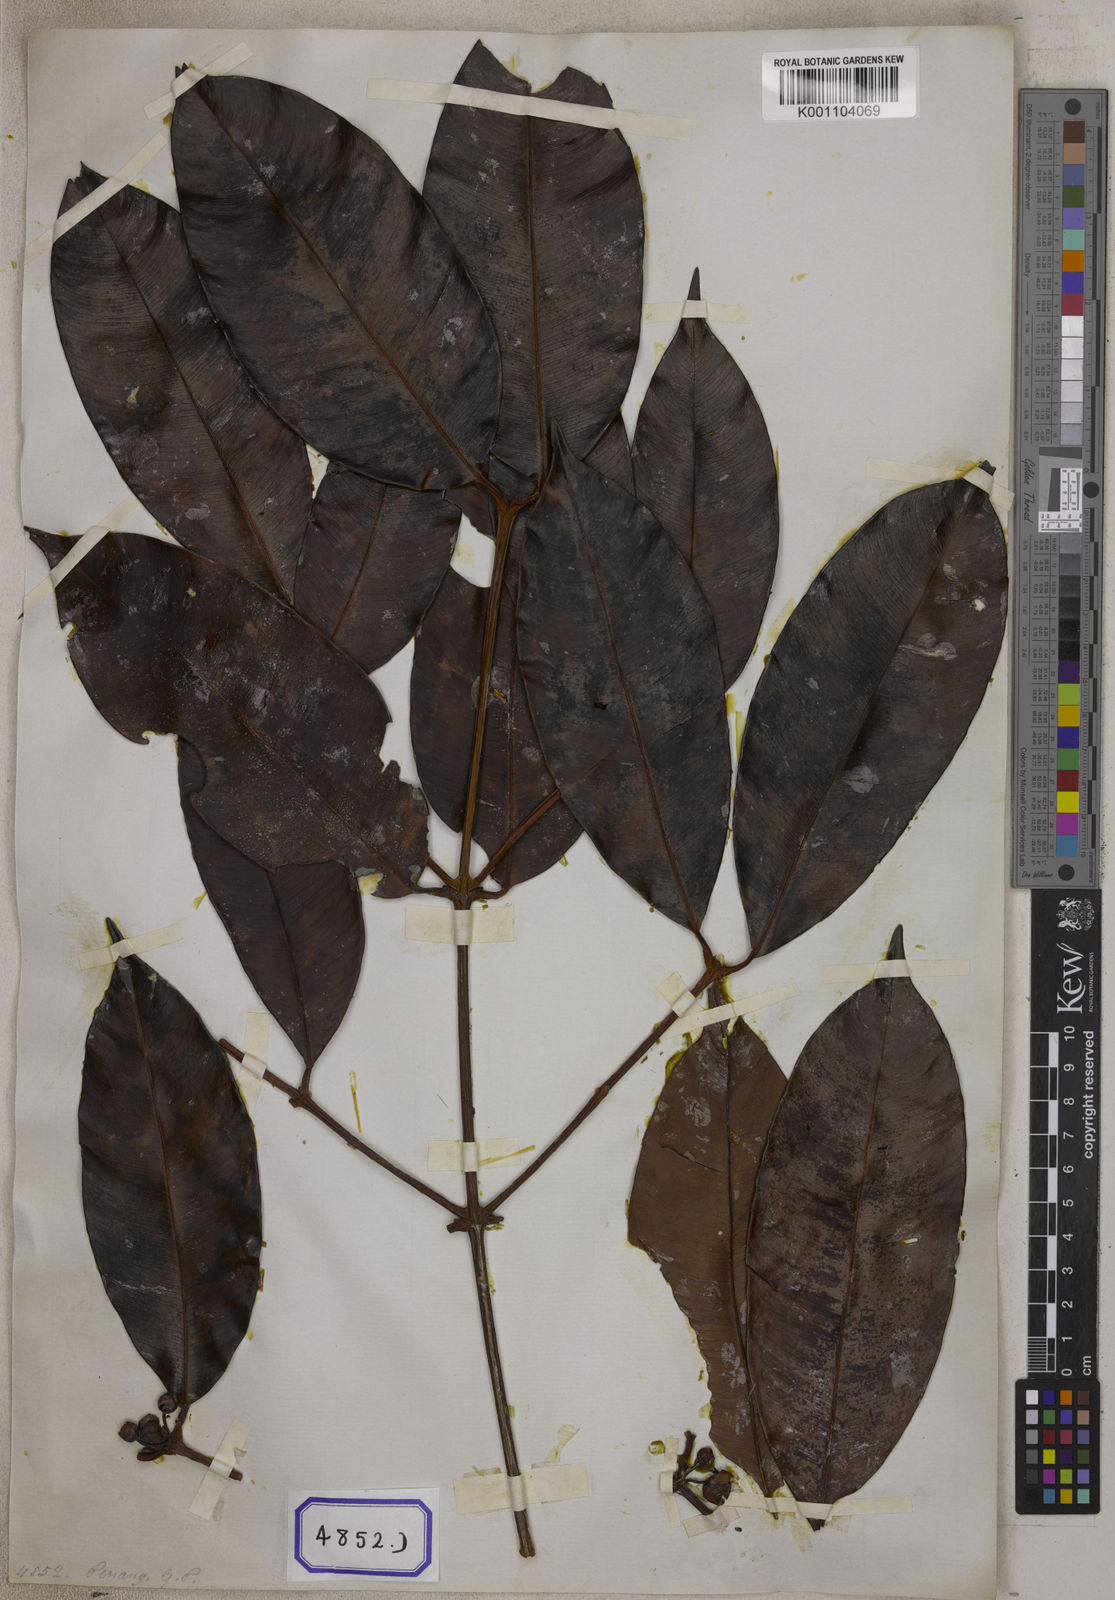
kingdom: Plantae
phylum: Tracheophyta
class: Magnoliopsida
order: Malpighiales
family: Clusiaceae
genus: Garcinia
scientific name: Garcinia celebica
